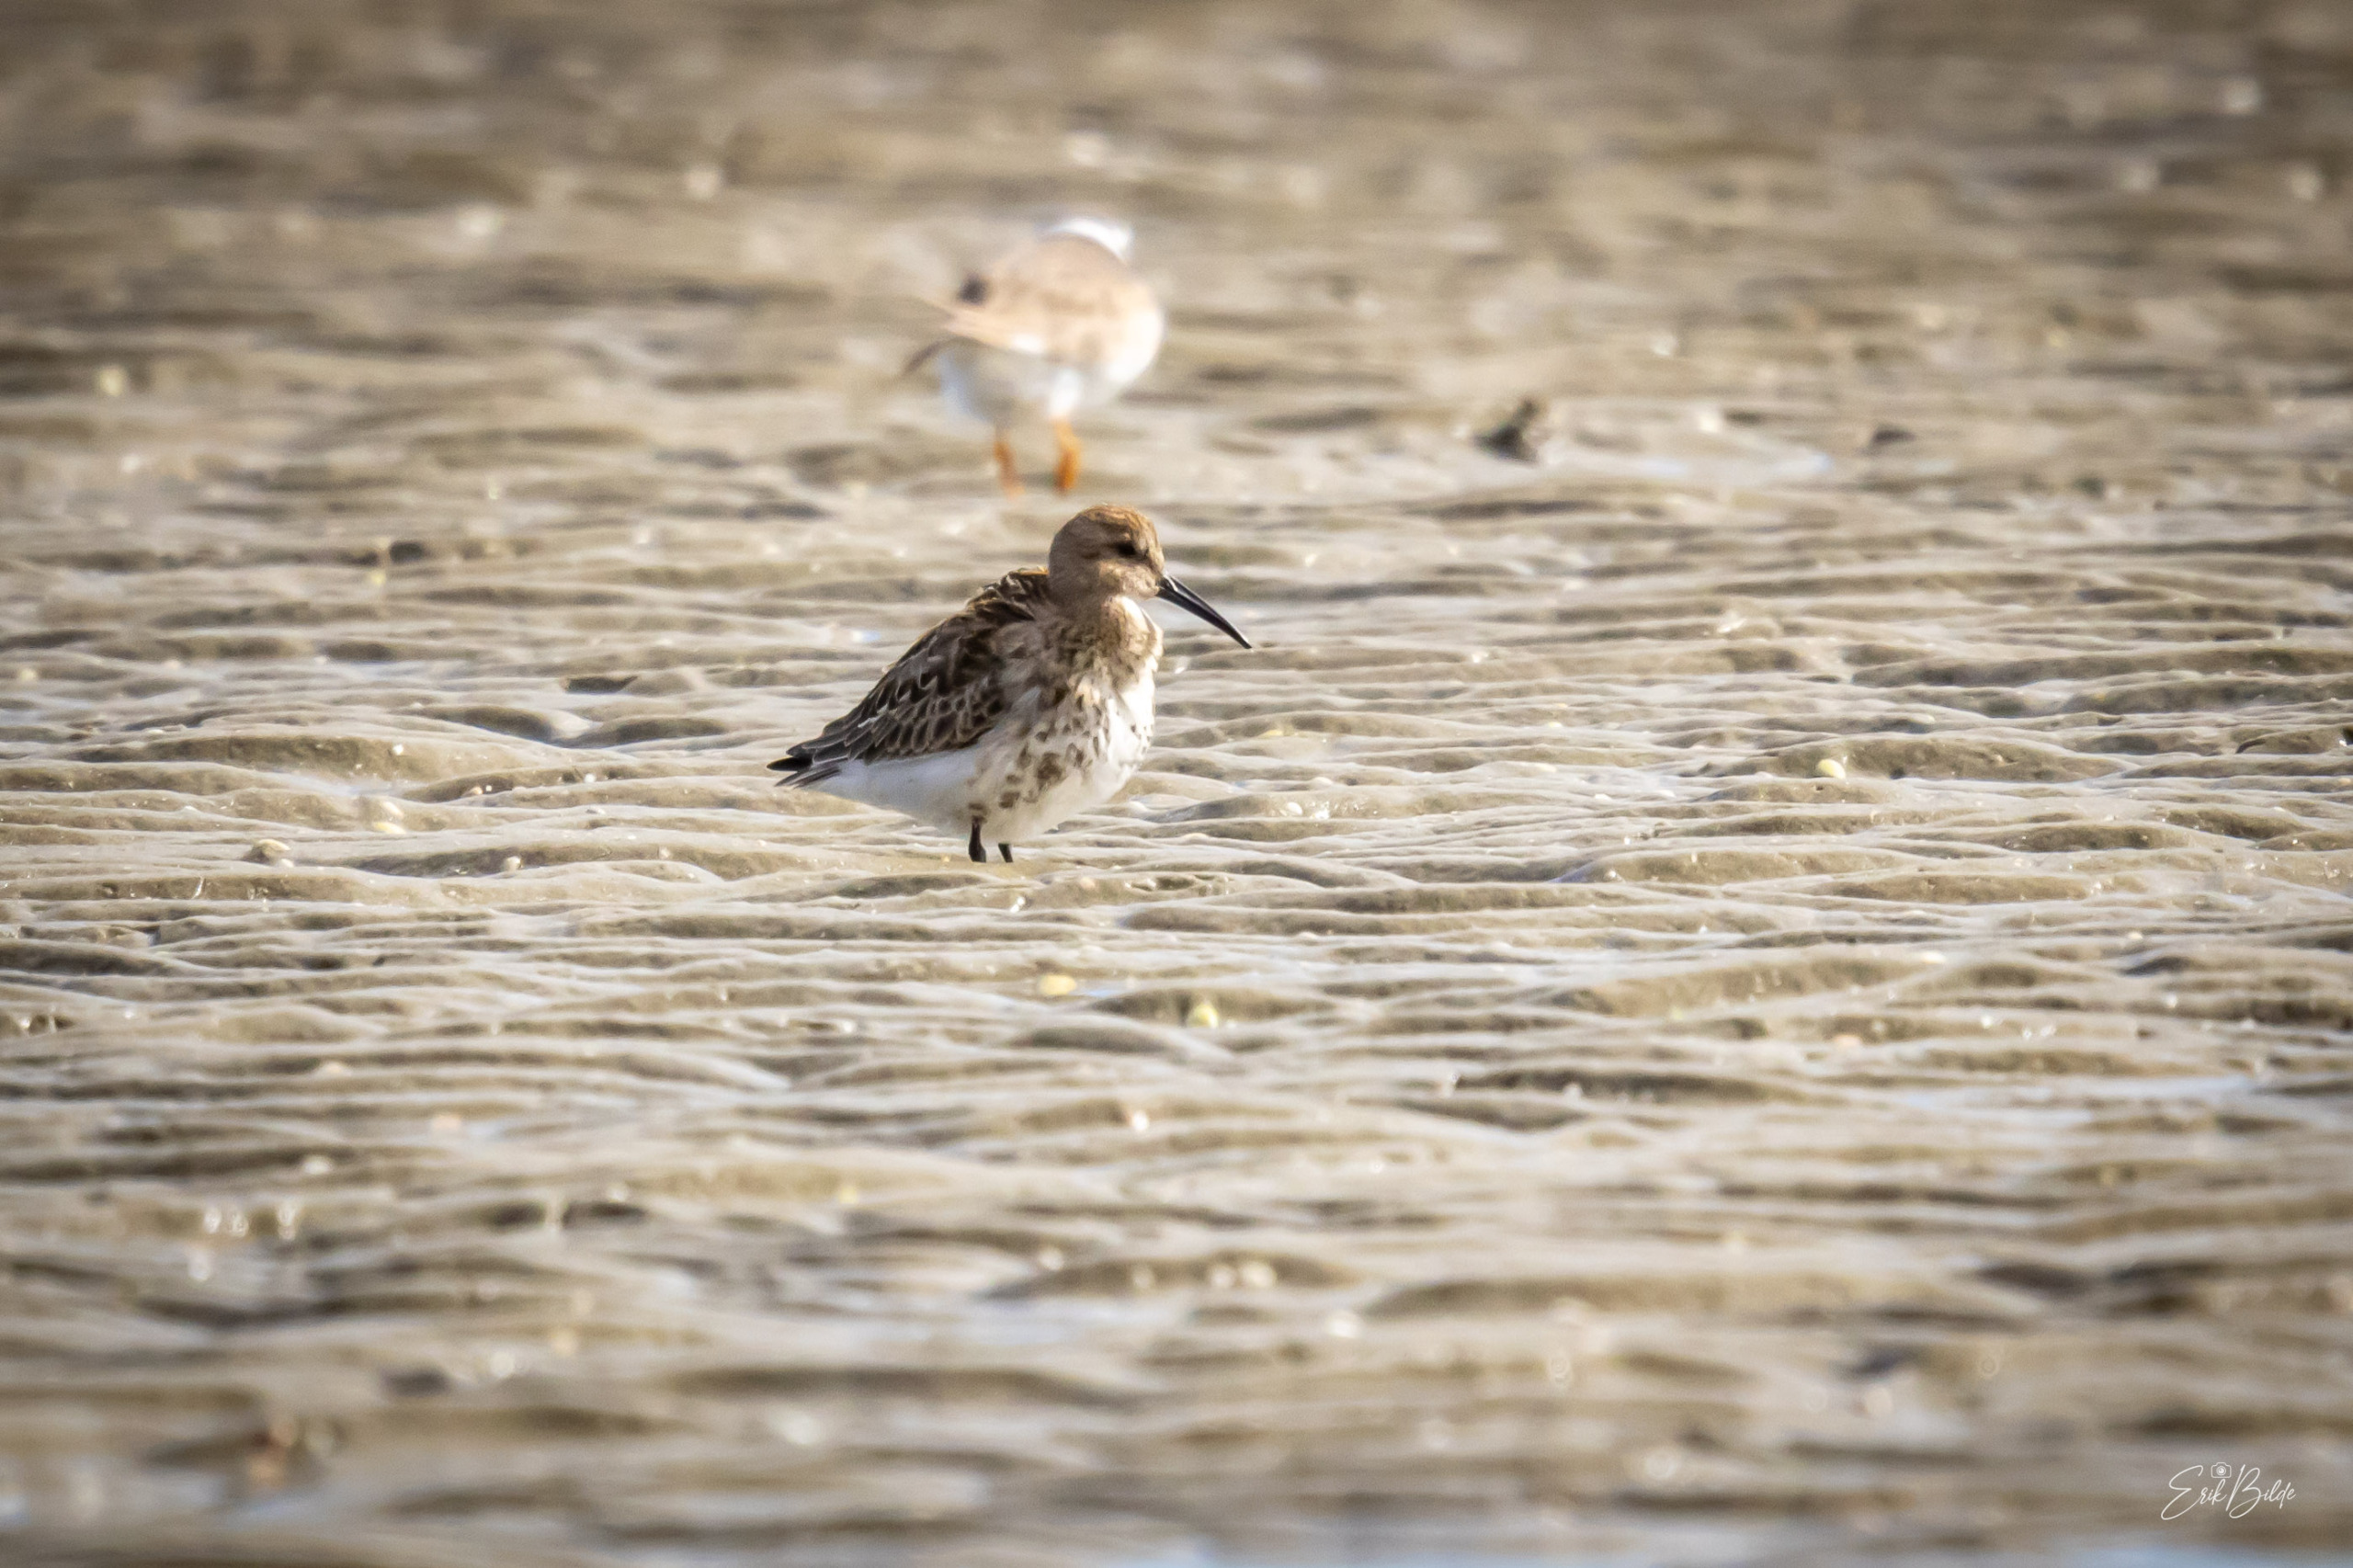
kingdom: Animalia
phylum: Chordata
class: Aves
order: Charadriiformes
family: Scolopacidae
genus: Calidris
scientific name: Calidris alpina
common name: Almindelig ryle
